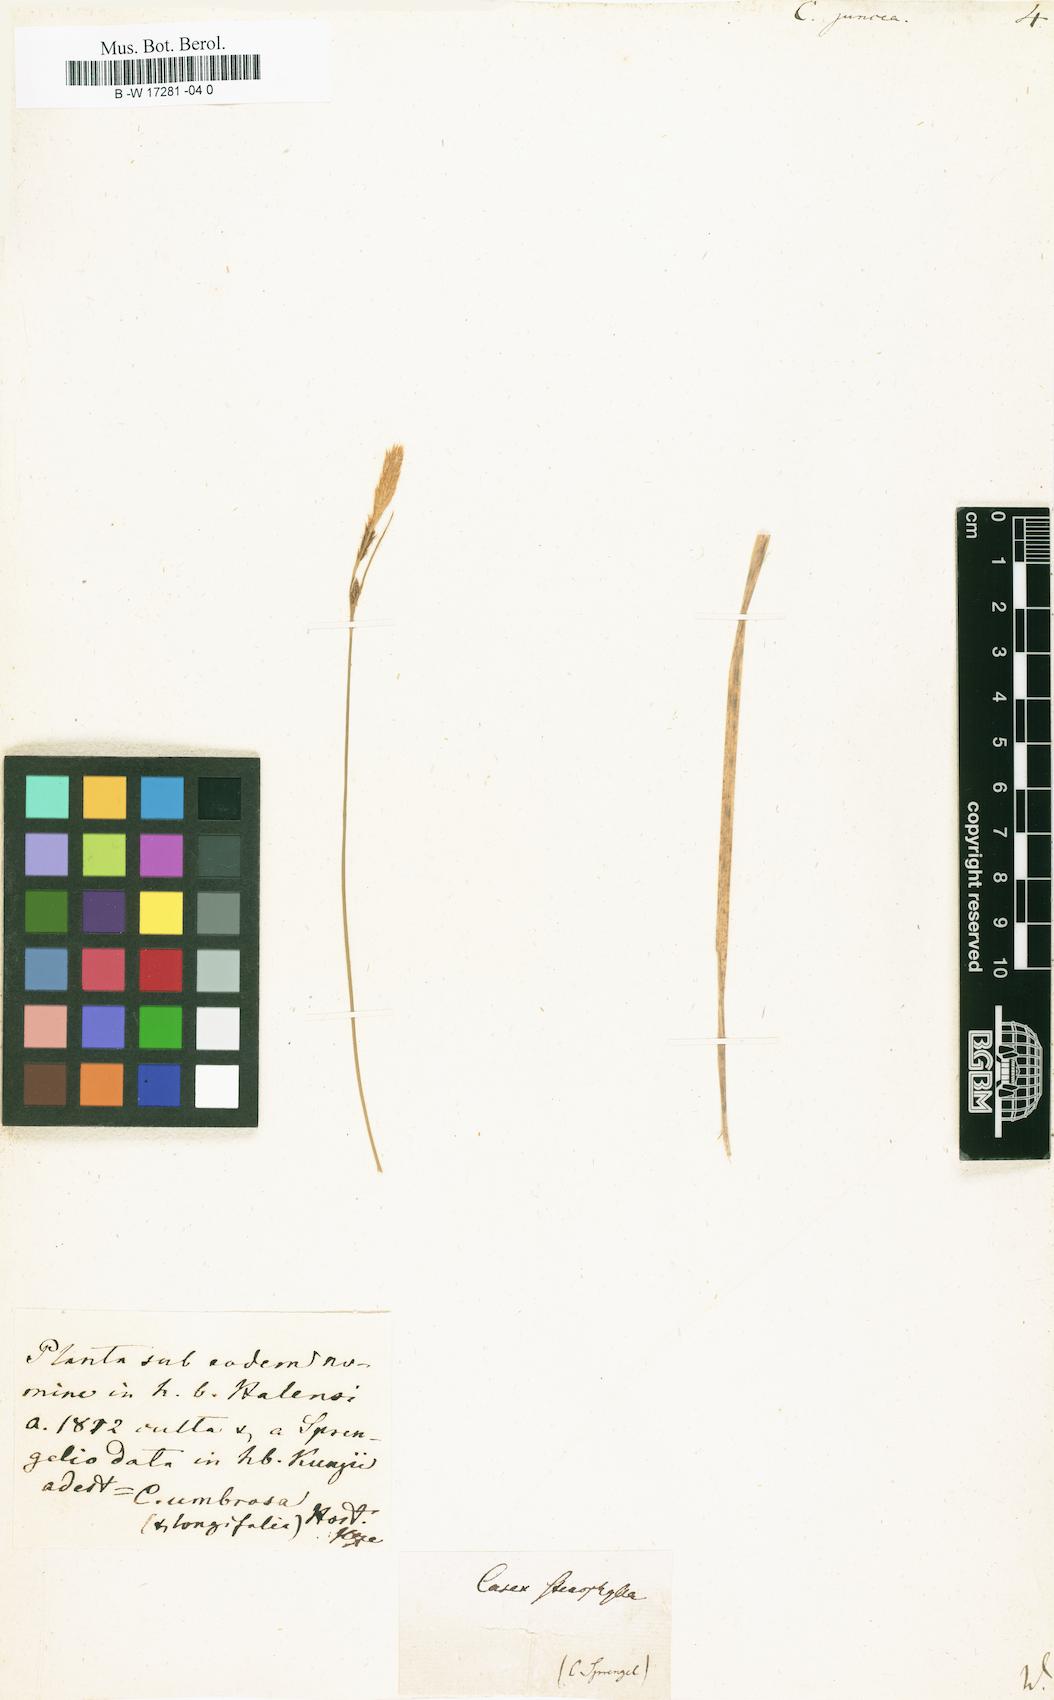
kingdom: Plantae
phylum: Tracheophyta
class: Liliopsida
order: Poales
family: Cyperaceae
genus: Carex
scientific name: Carex misera
